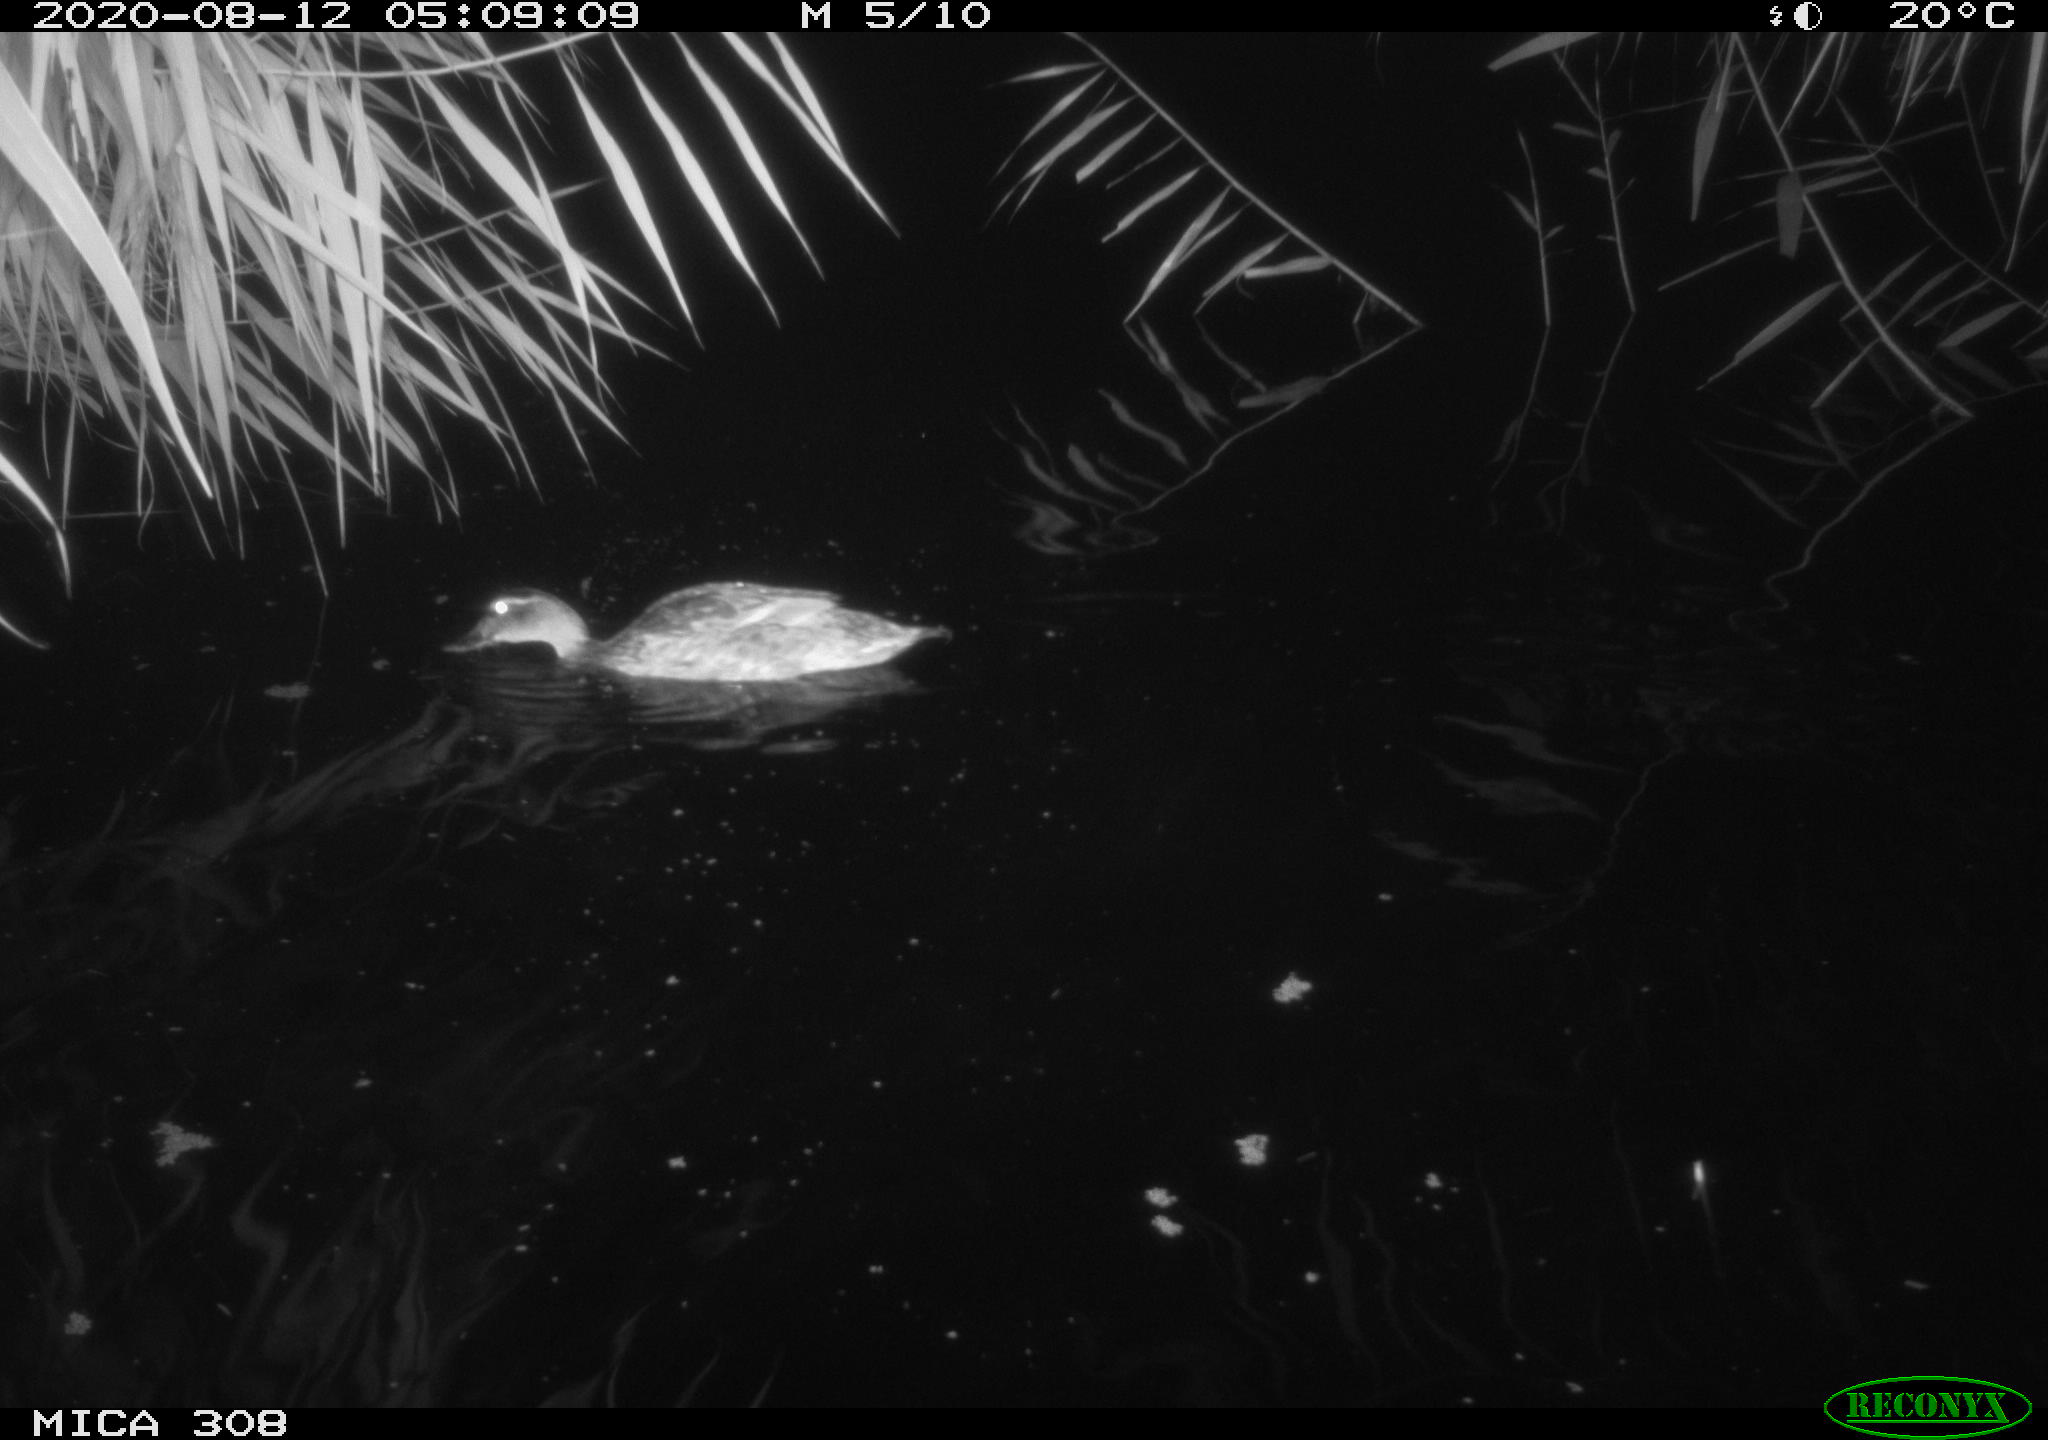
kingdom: Animalia
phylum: Chordata
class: Aves
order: Anseriformes
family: Anatidae
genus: Anas
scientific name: Anas platyrhynchos
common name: Mallard
